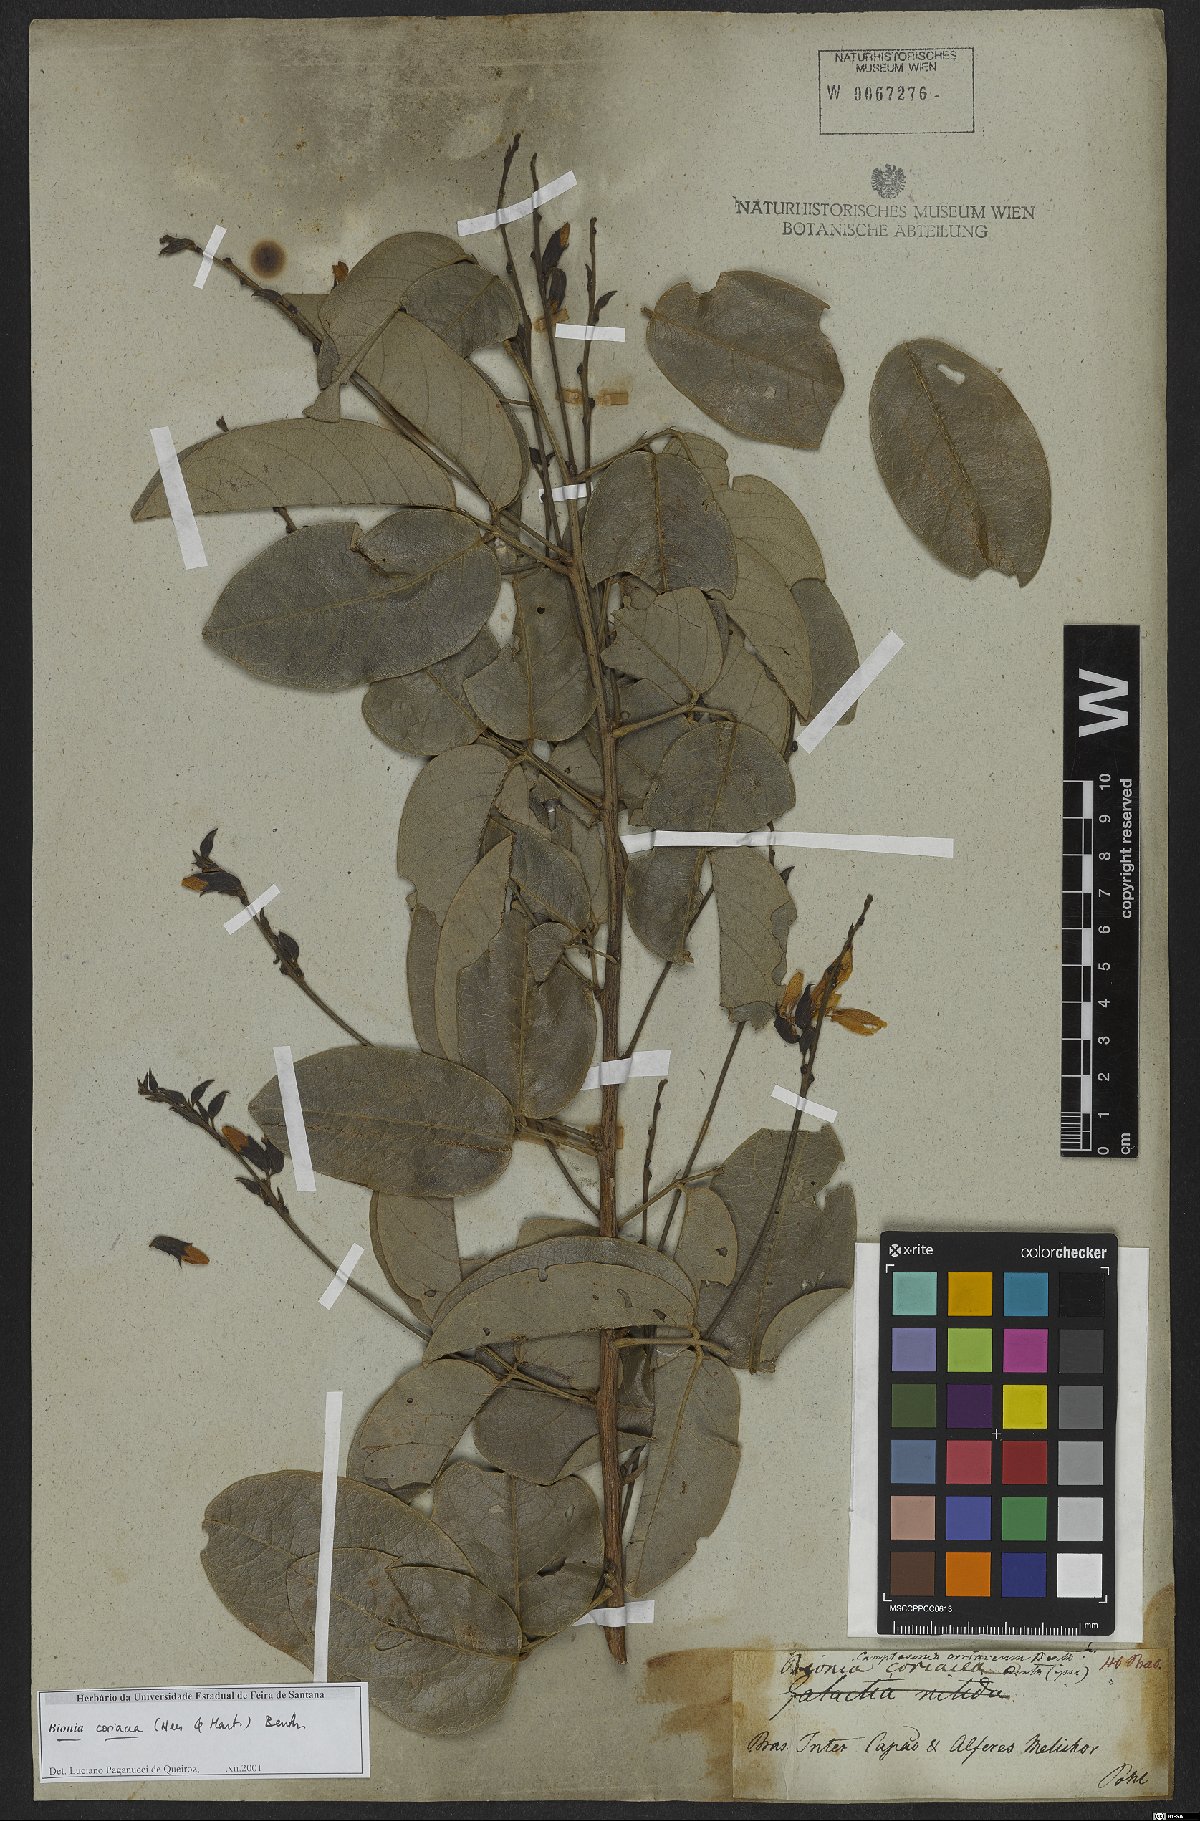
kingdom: Plantae
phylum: Tracheophyta
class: Magnoliopsida
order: Fabales
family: Fabaceae
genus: Camptosema
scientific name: Camptosema coriaceum
